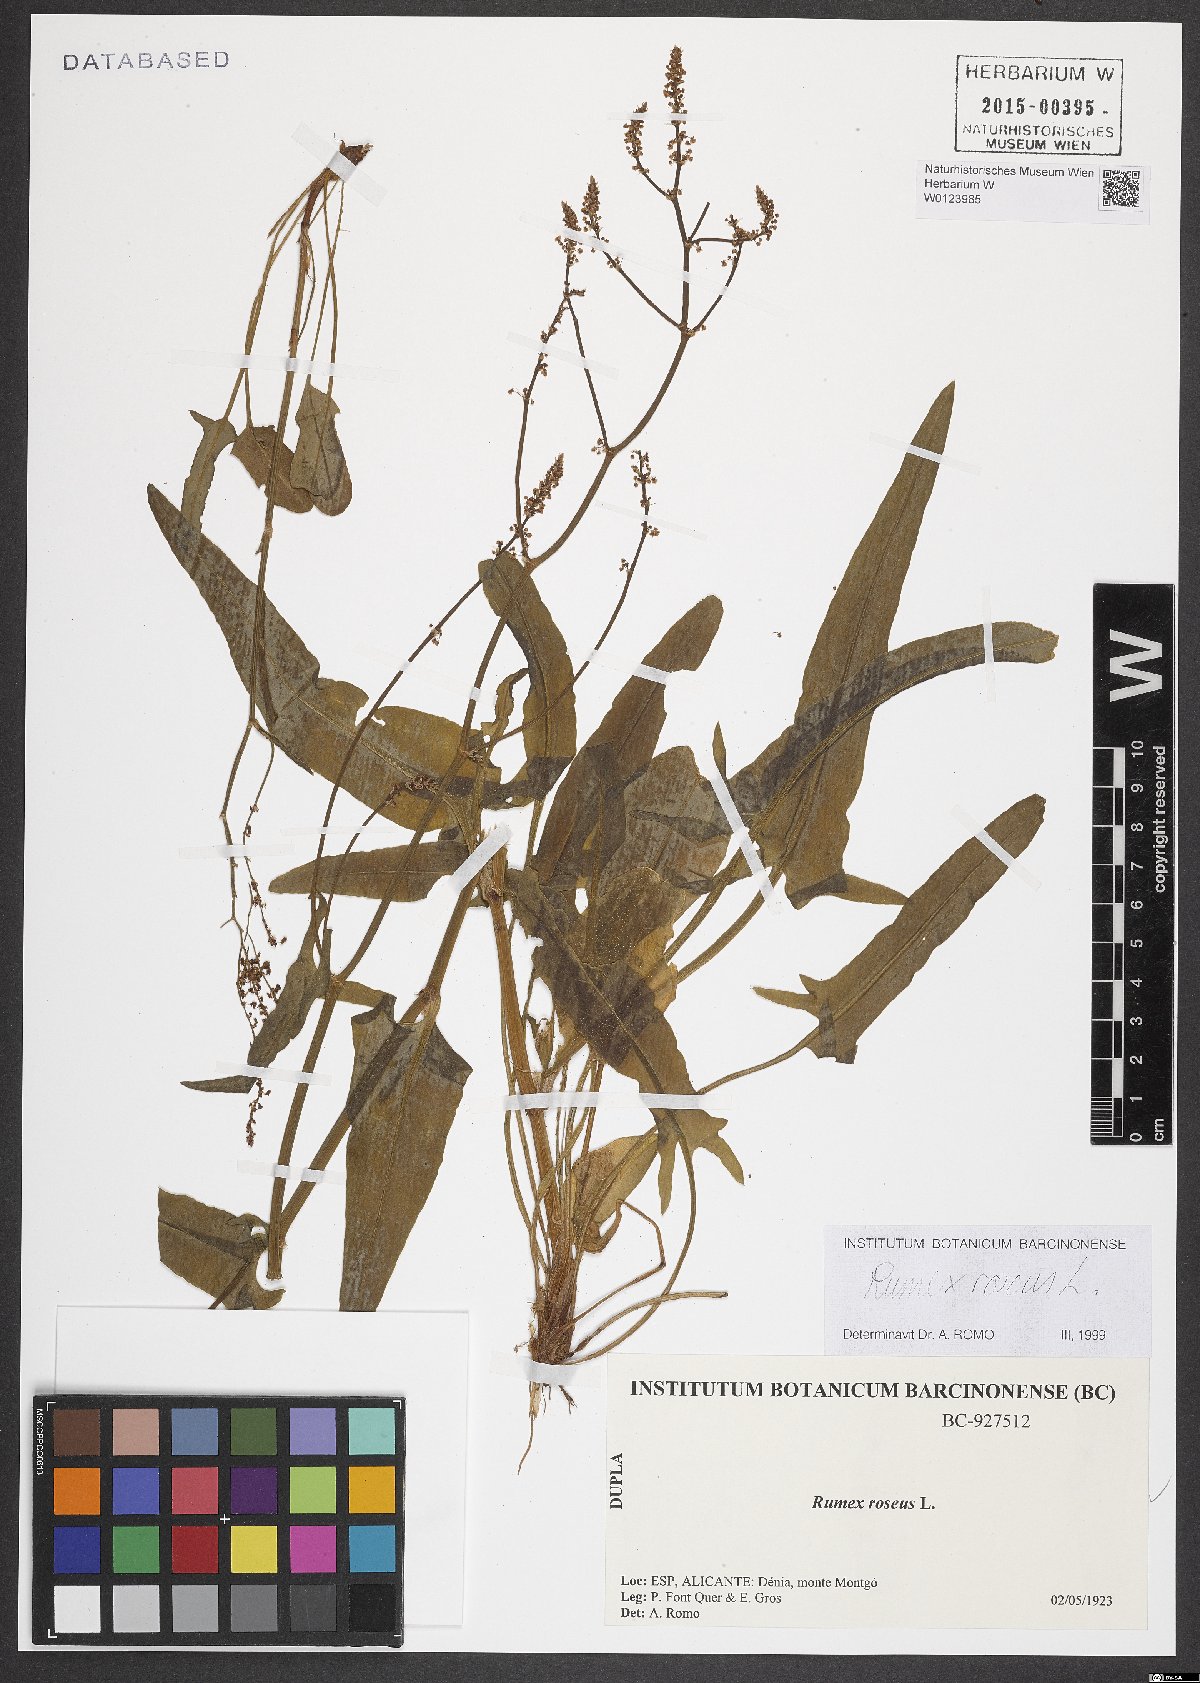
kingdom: Plantae
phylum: Tracheophyta
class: Magnoliopsida
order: Caryophyllales
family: Polygonaceae
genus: Rumex
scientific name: Rumex roseus
